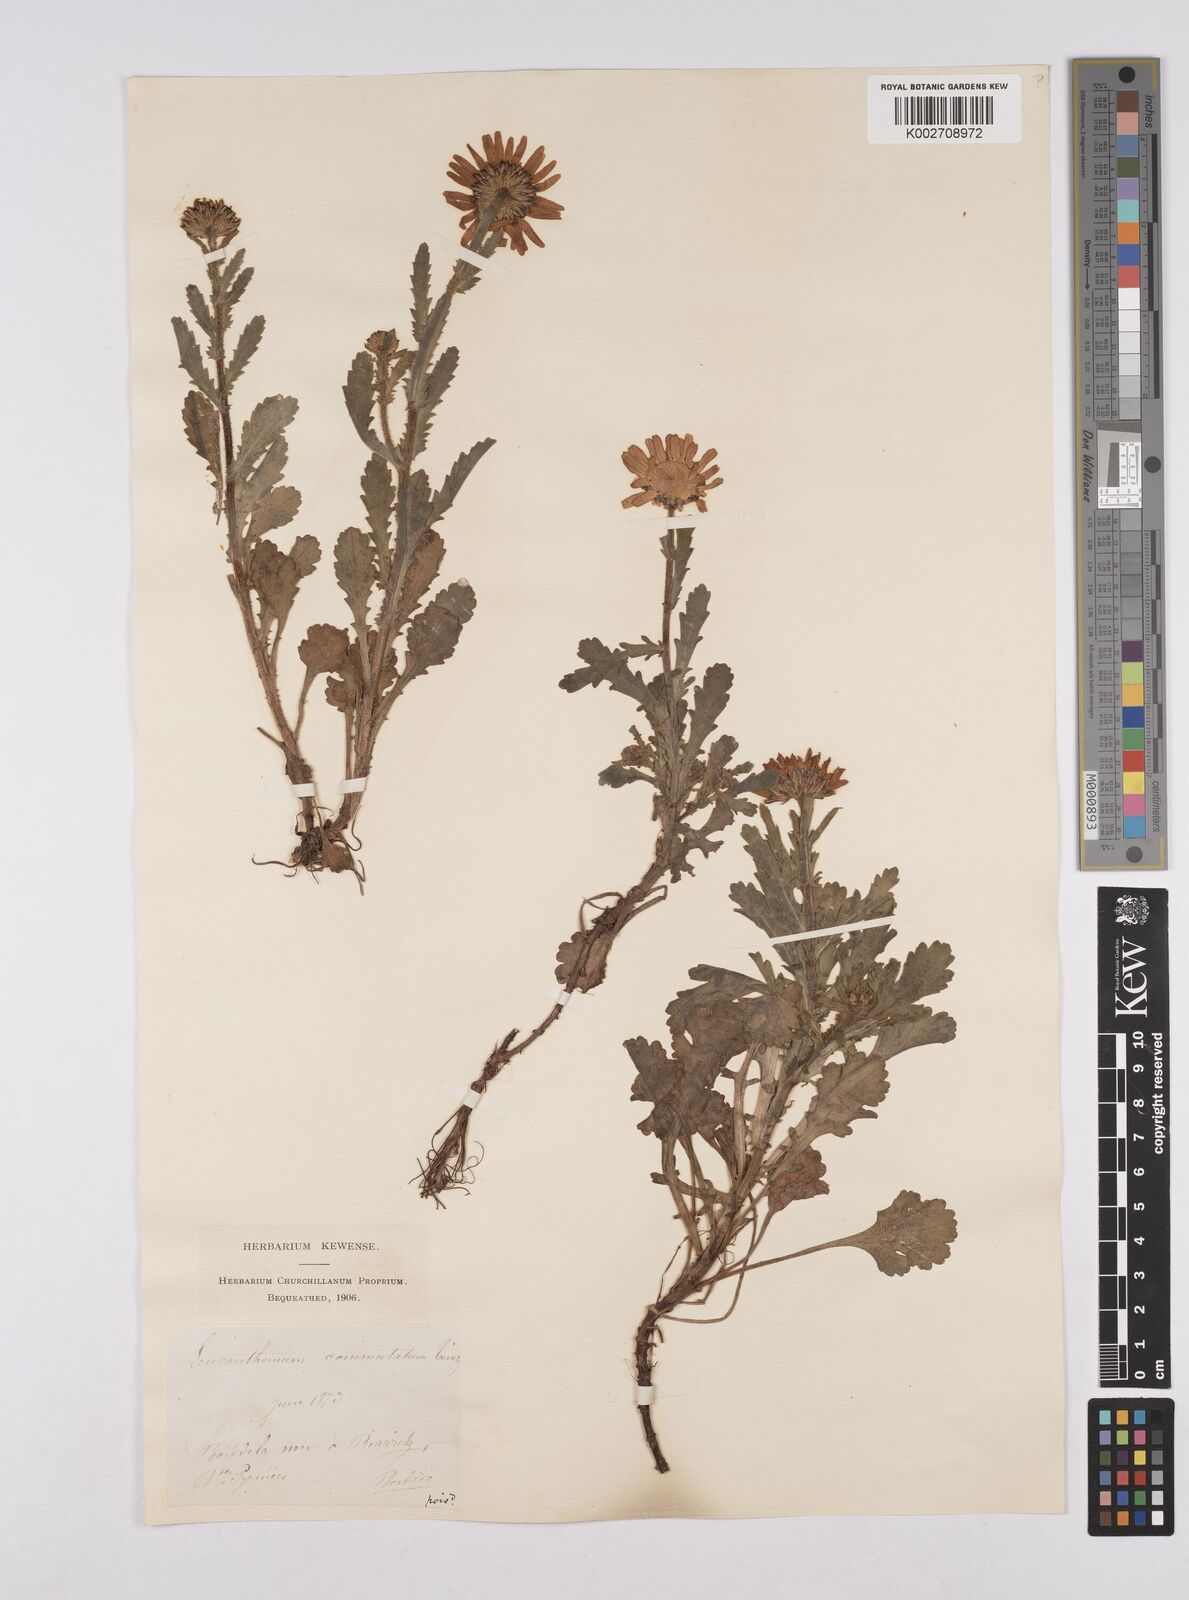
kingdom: Plantae
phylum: Tracheophyta
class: Magnoliopsida
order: Asterales
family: Asteraceae
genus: Leucanthemum
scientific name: Leucanthemum vulgare
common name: Oxeye daisy
